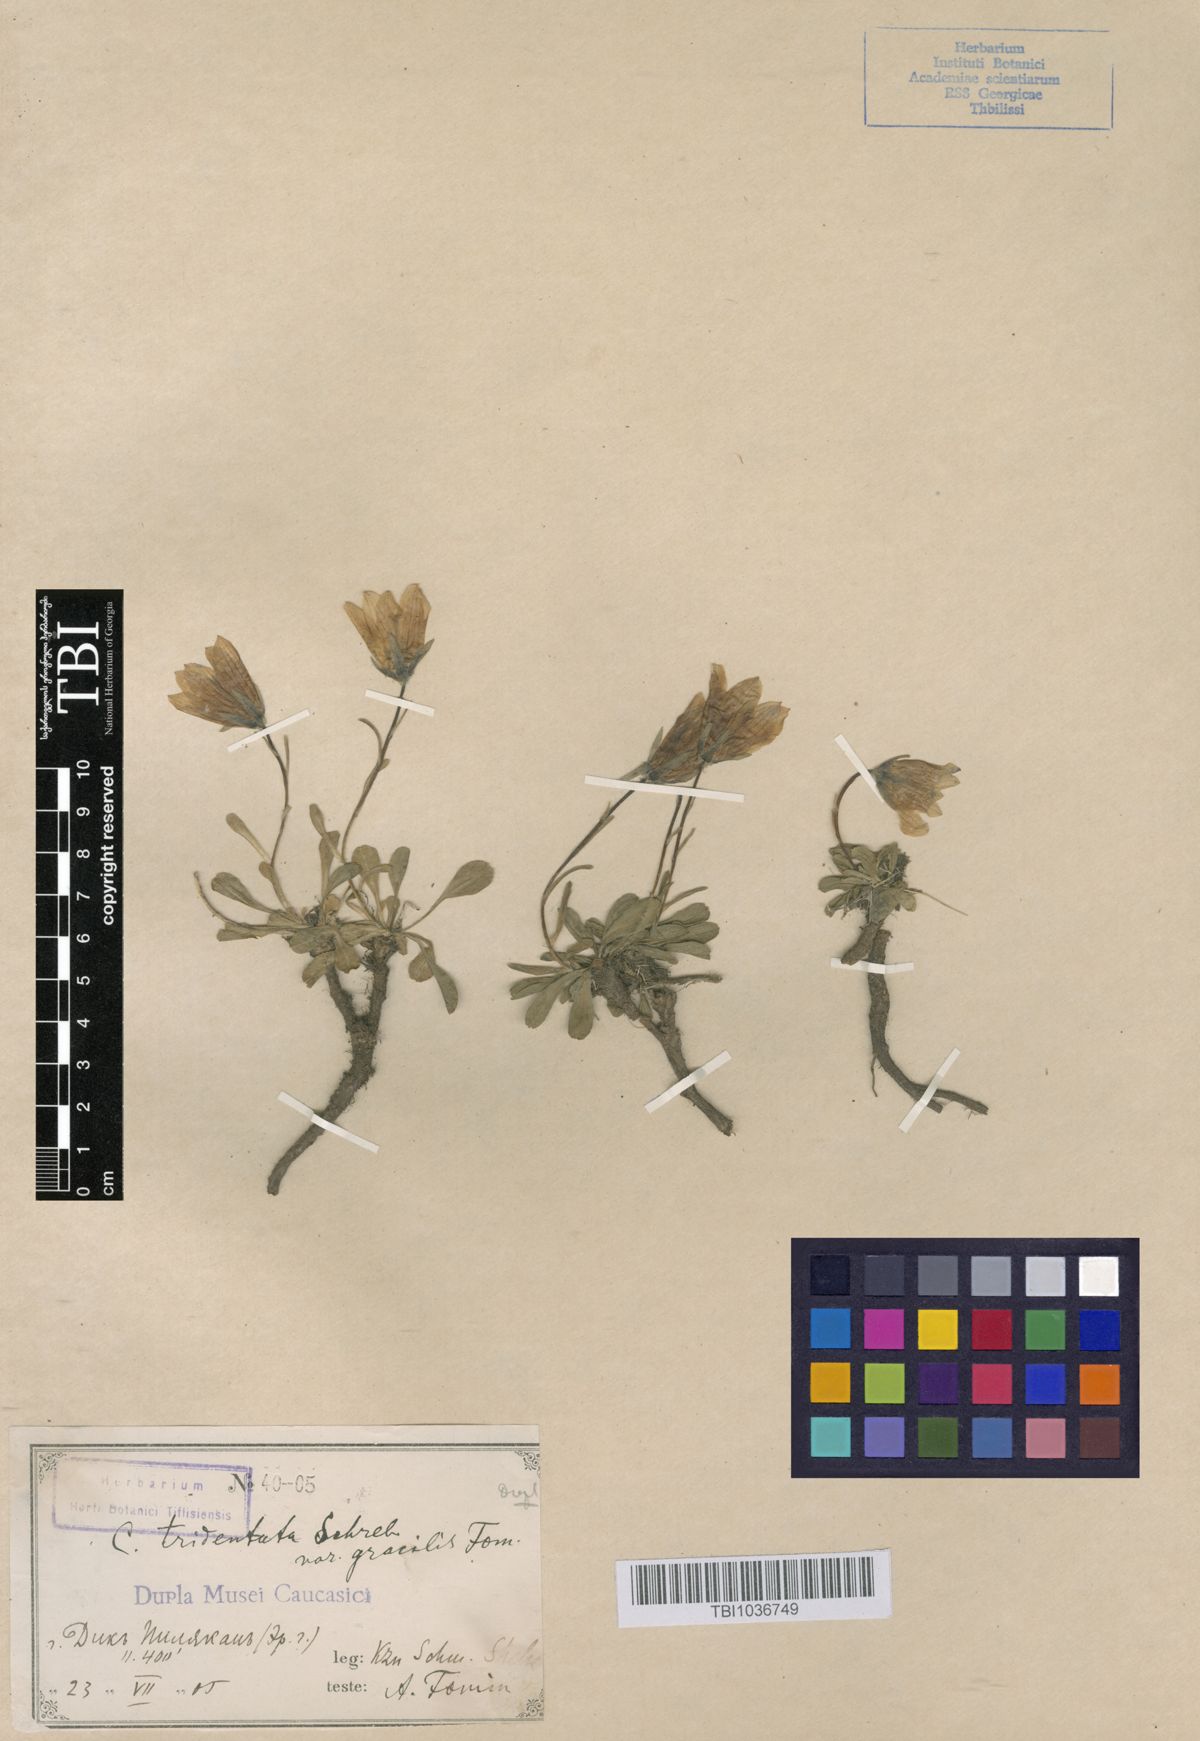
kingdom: Plantae
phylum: Tracheophyta
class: Magnoliopsida
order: Asterales
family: Campanulaceae
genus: Campanula
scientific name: Campanula tridentata
